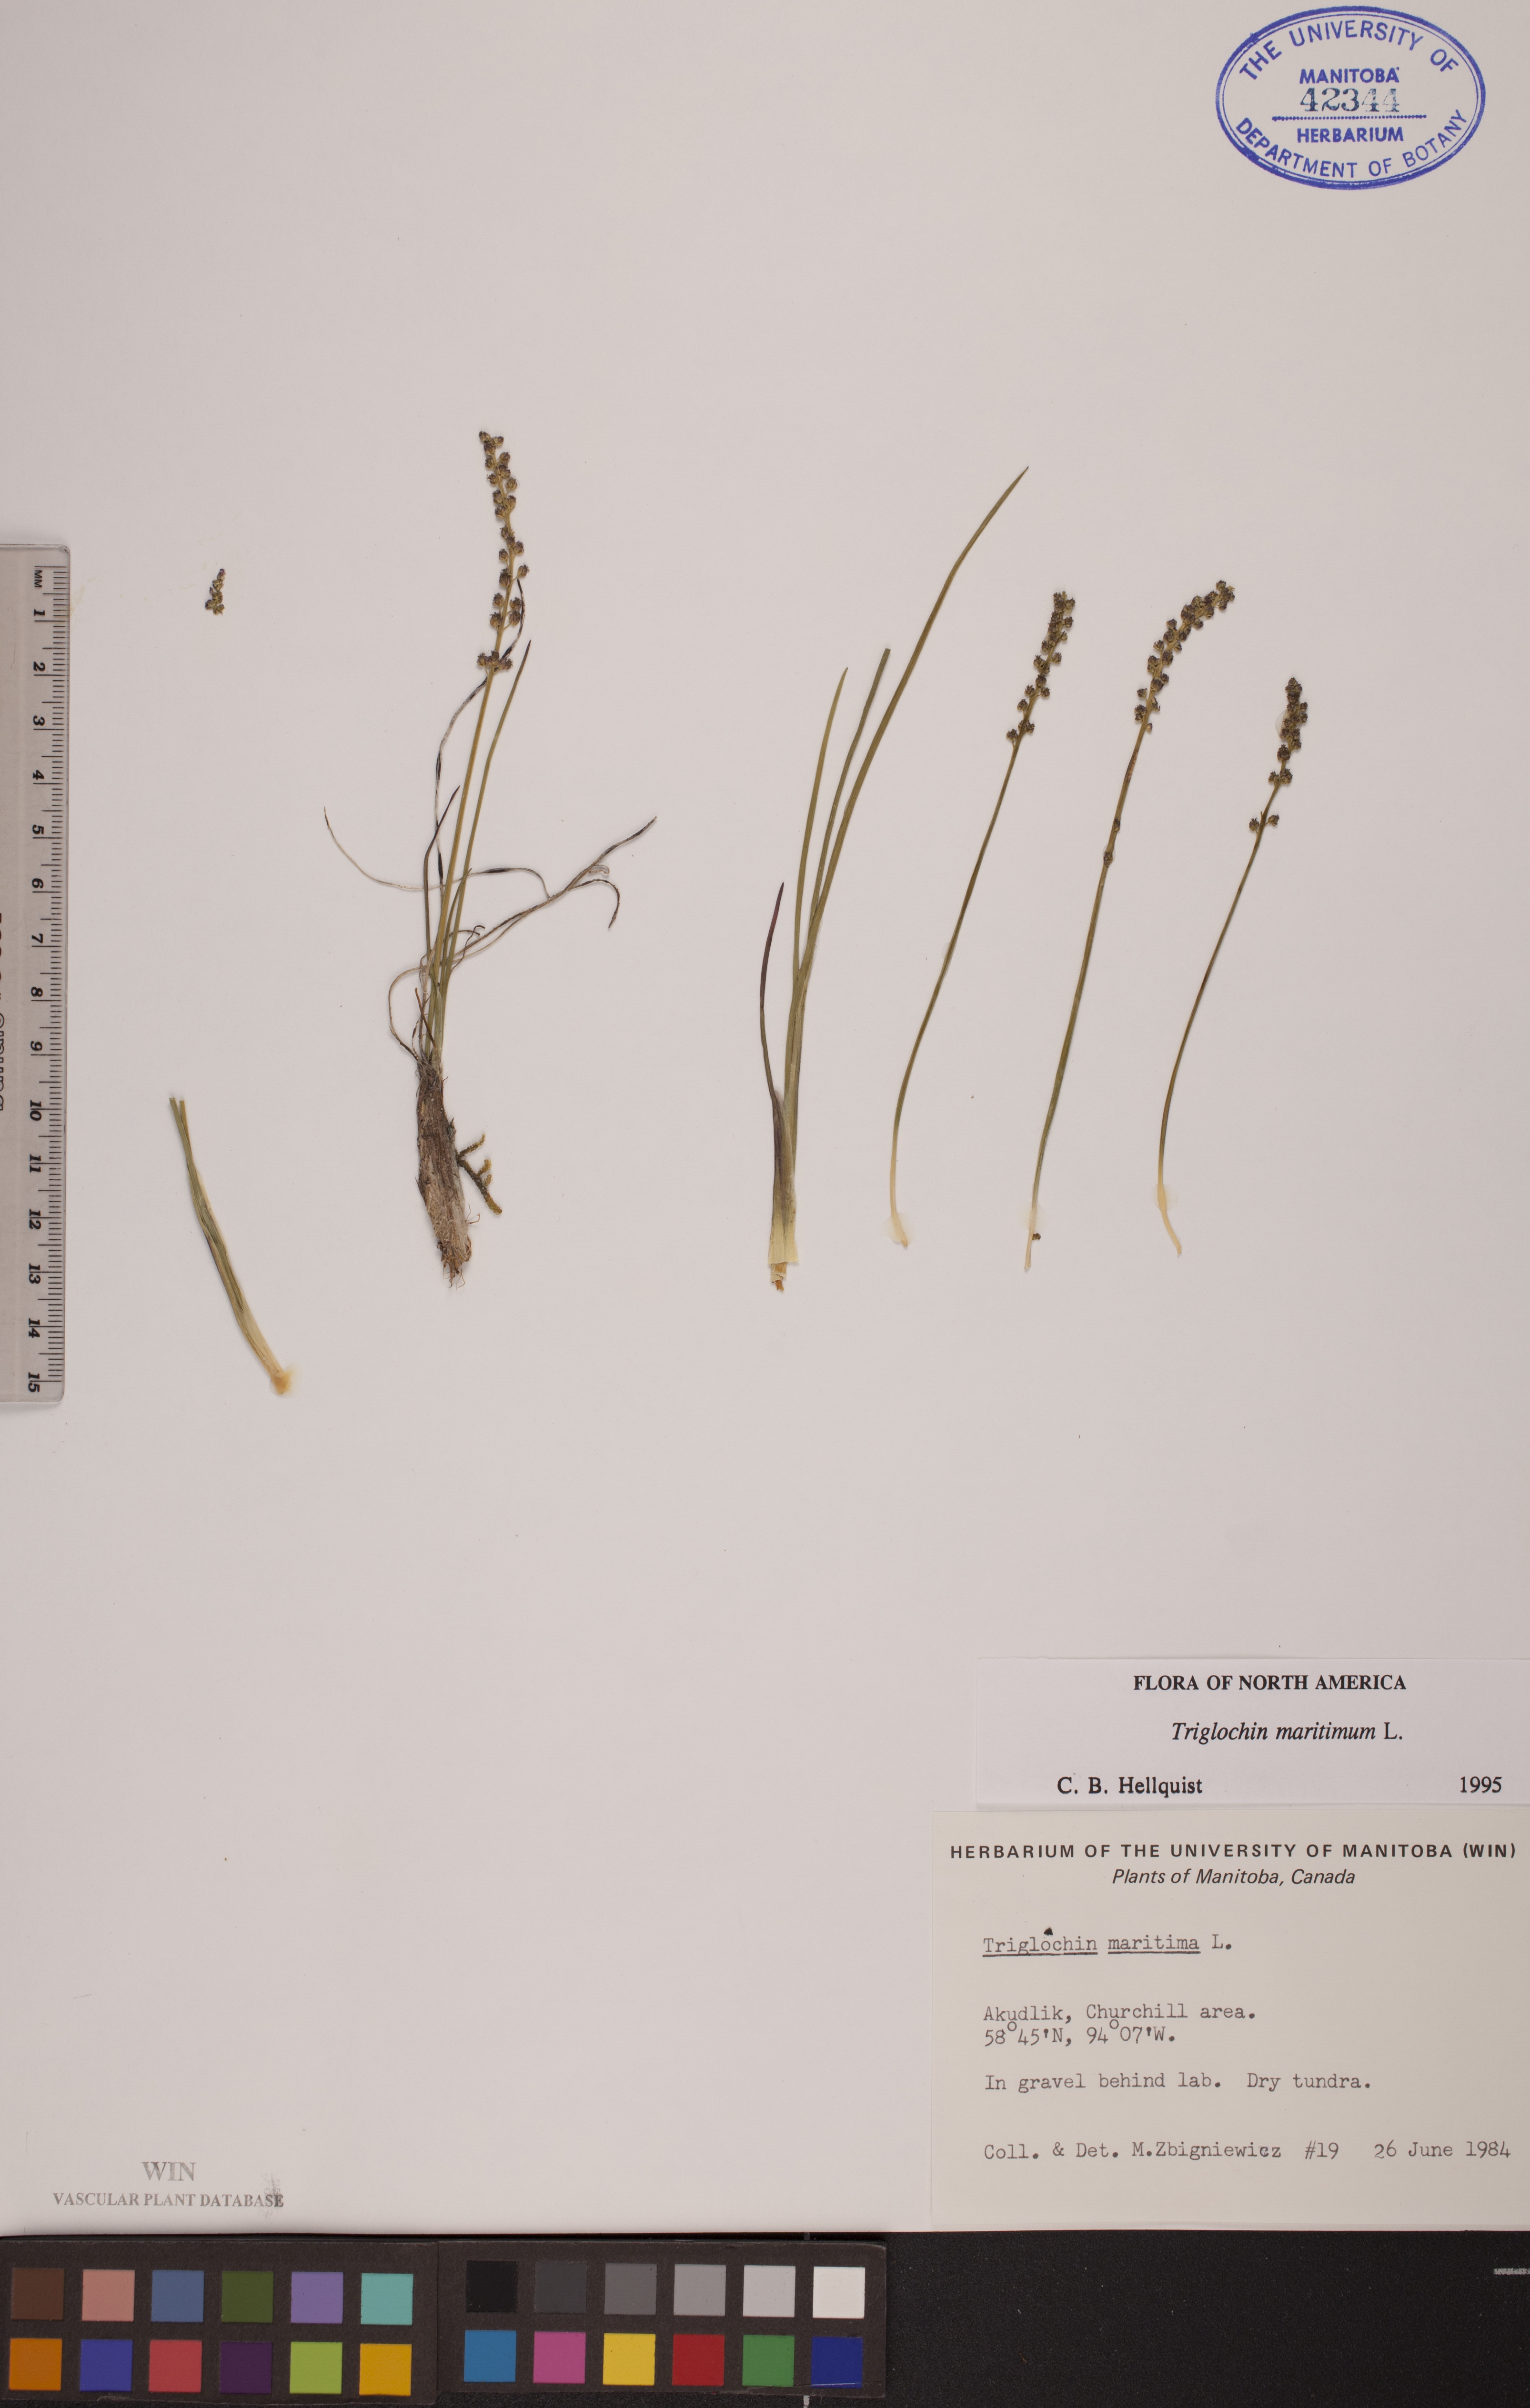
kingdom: Plantae
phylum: Tracheophyta
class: Liliopsida
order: Alismatales
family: Juncaginaceae
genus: Triglochin
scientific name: Triglochin maritima
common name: Sea arrowgrass
